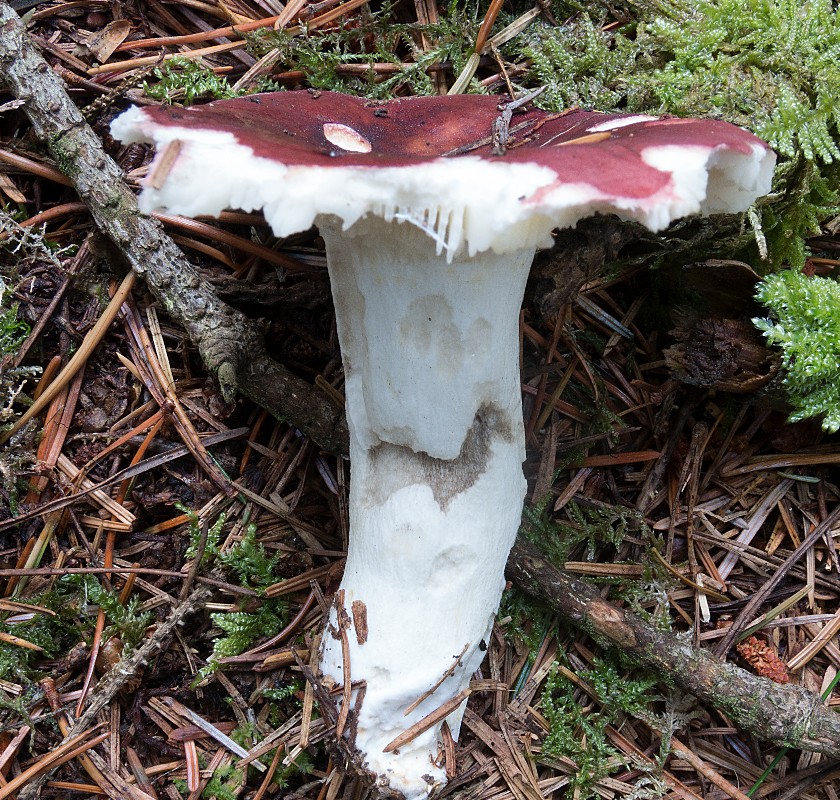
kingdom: Fungi
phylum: Basidiomycota
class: Agaricomycetes
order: Russulales
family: Russulaceae
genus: Russula
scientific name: Russula vinosa
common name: vinrød skørhat
